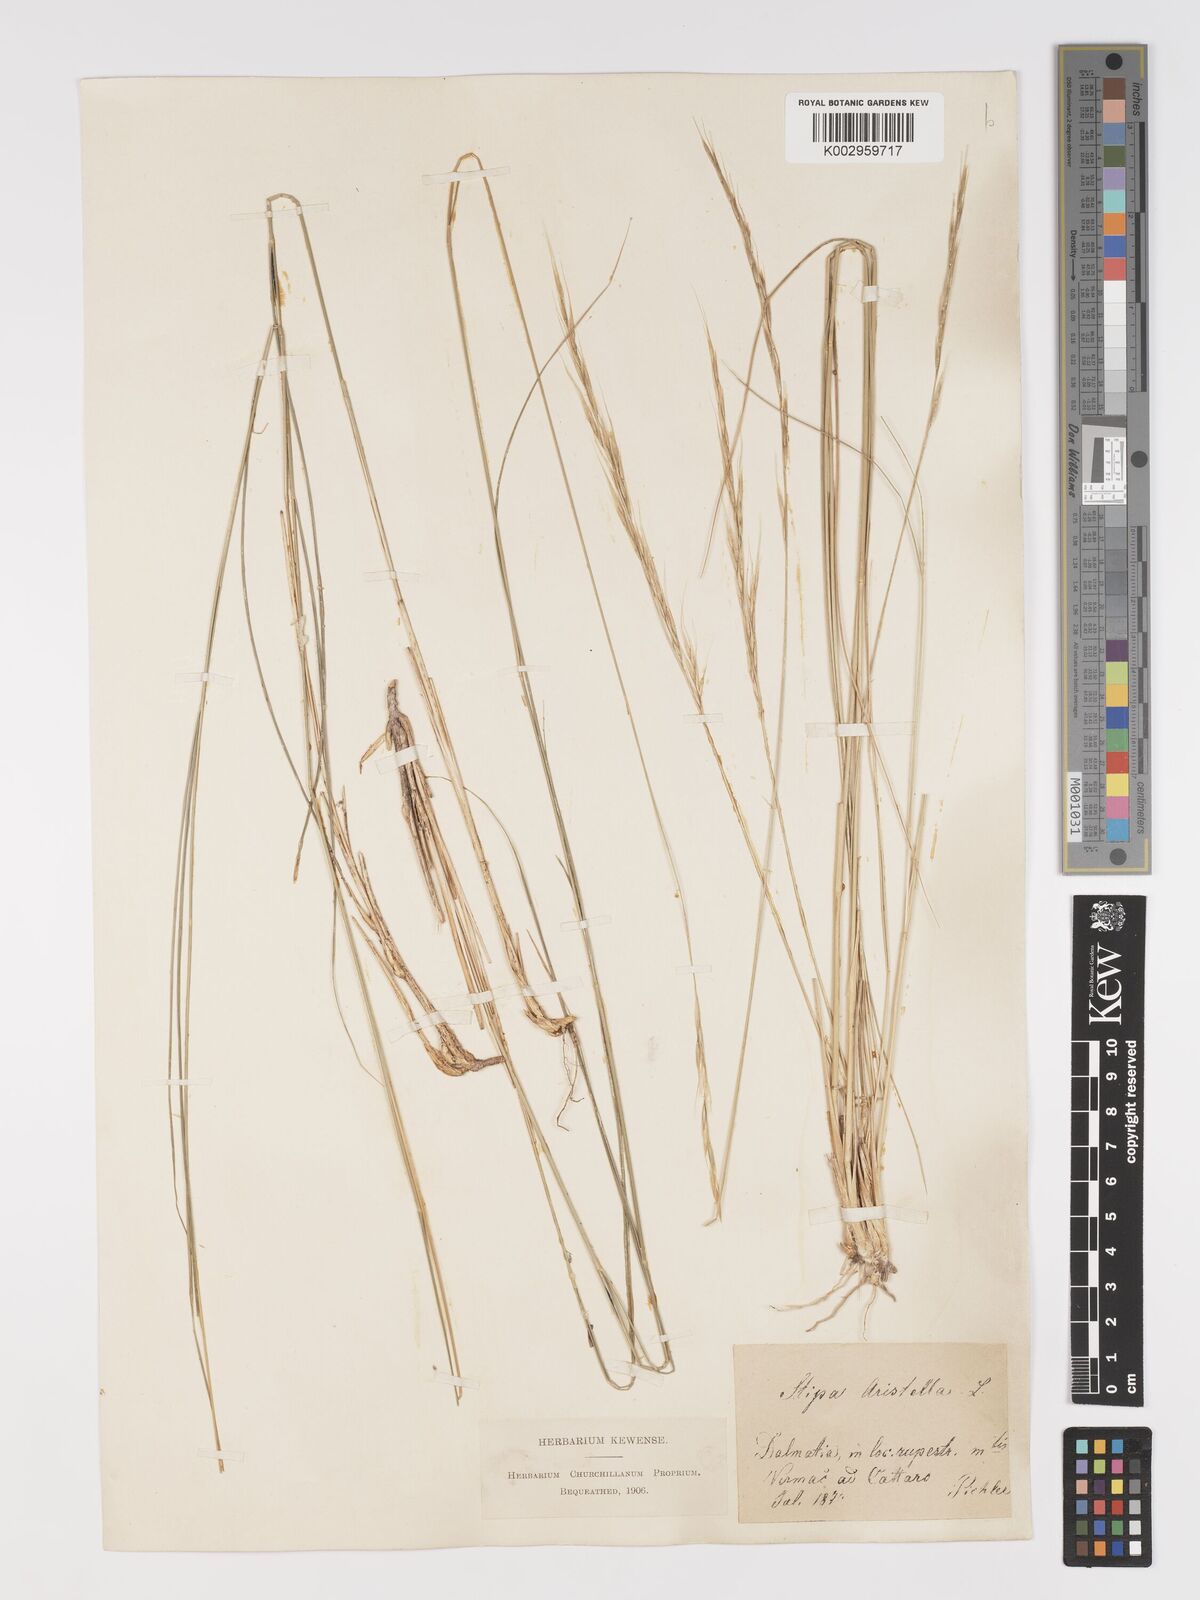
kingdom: Plantae
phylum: Tracheophyta
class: Liliopsida
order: Poales
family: Poaceae
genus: Achnatherum
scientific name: Achnatherum bromoides
